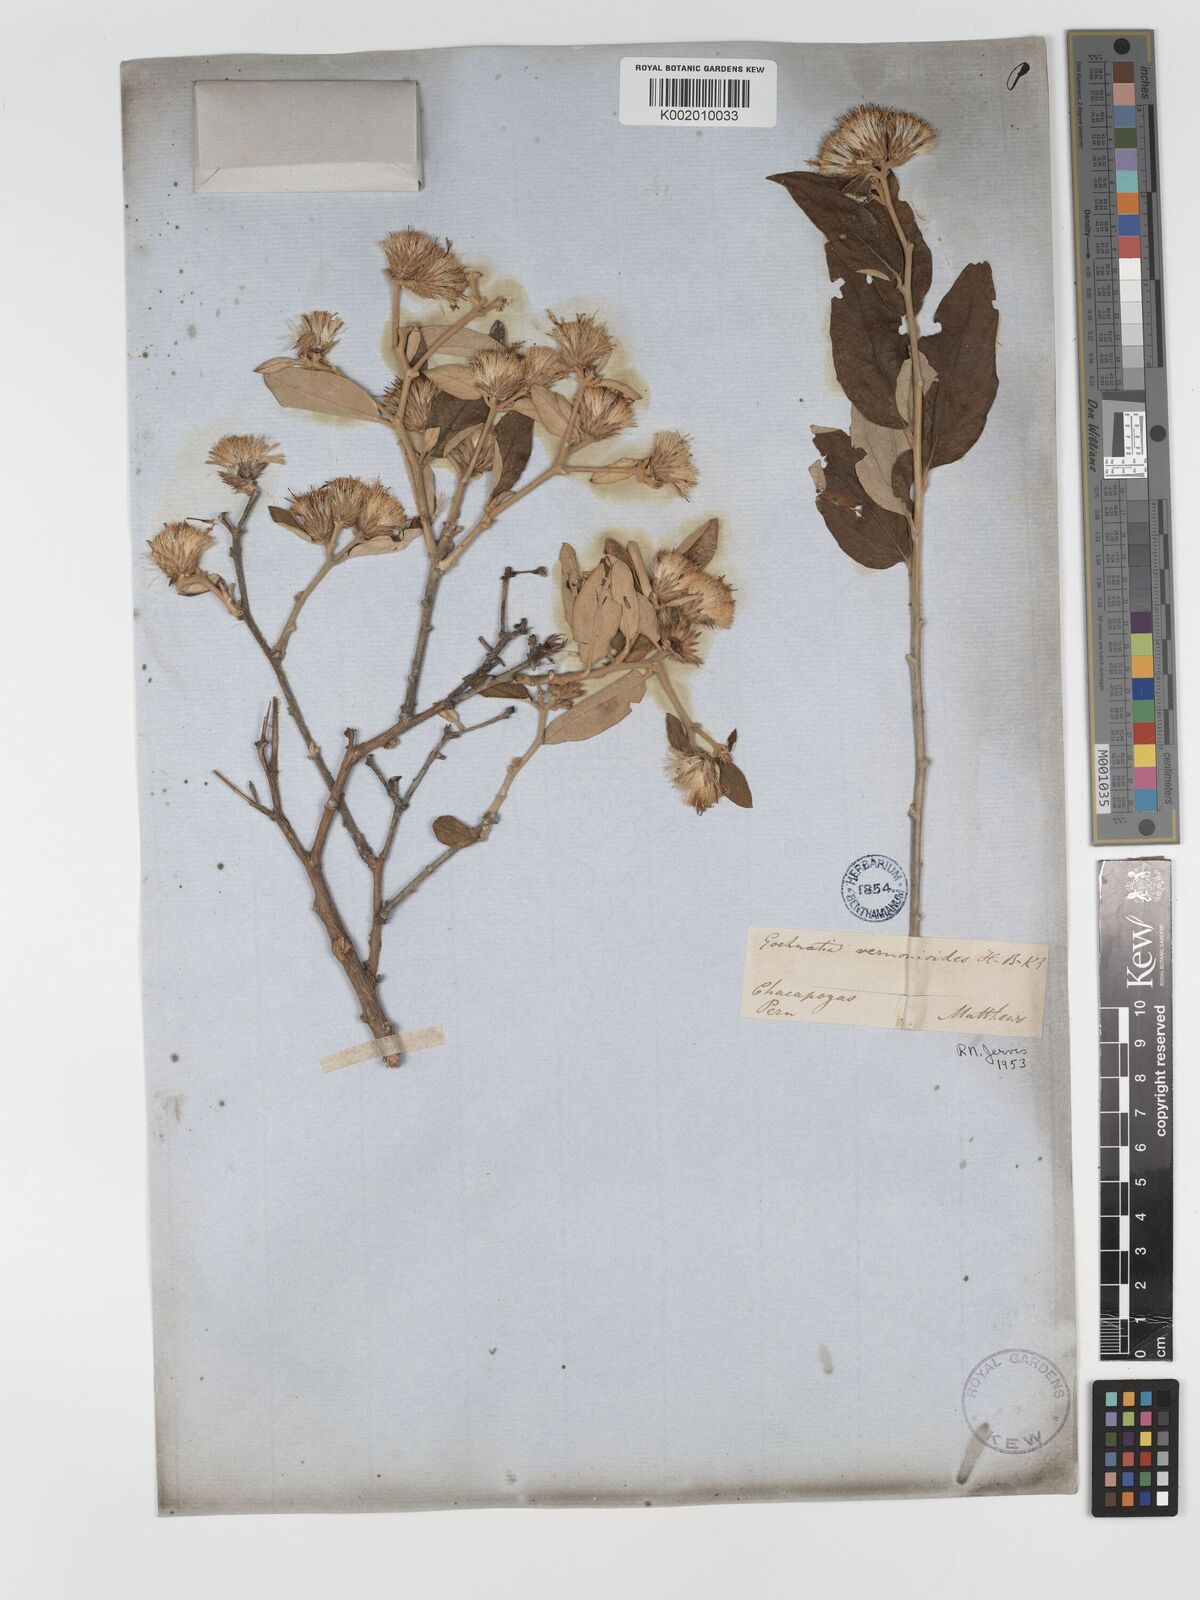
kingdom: Plantae
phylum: Tracheophyta
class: Magnoliopsida
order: Asterales
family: Asteraceae
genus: Gochnatia
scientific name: Gochnatia vernonioides
